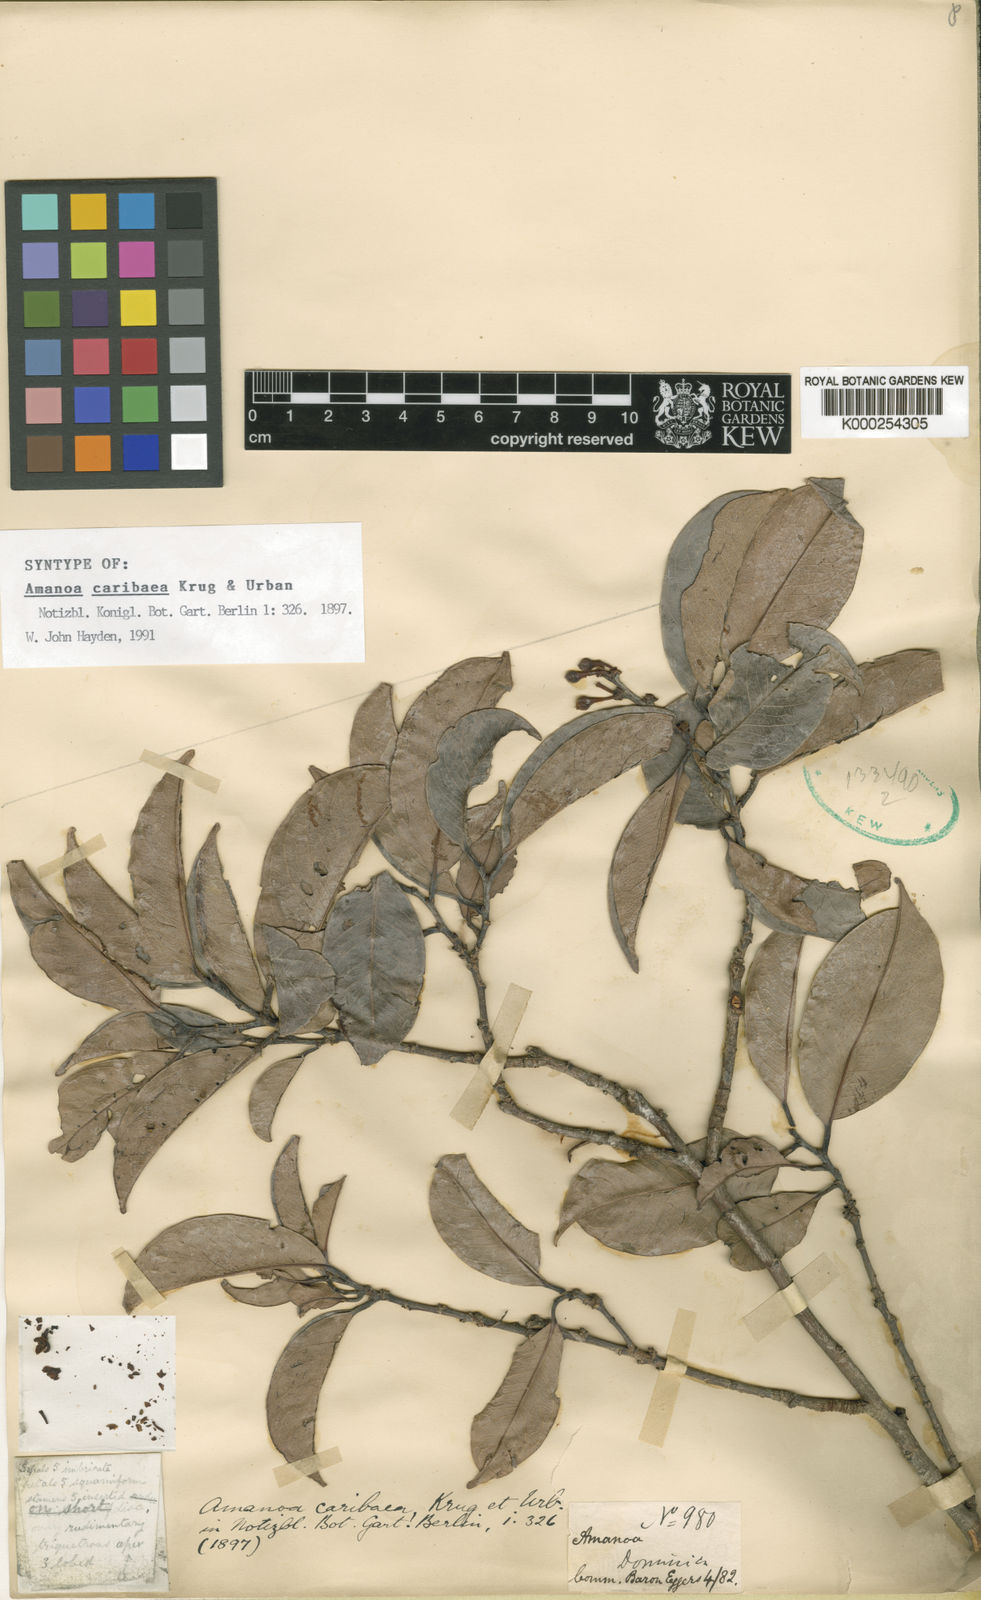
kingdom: Plantae
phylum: Tracheophyta
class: Magnoliopsida
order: Malpighiales
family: Phyllanthaceae
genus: Amanoa
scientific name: Amanoa caribaea
